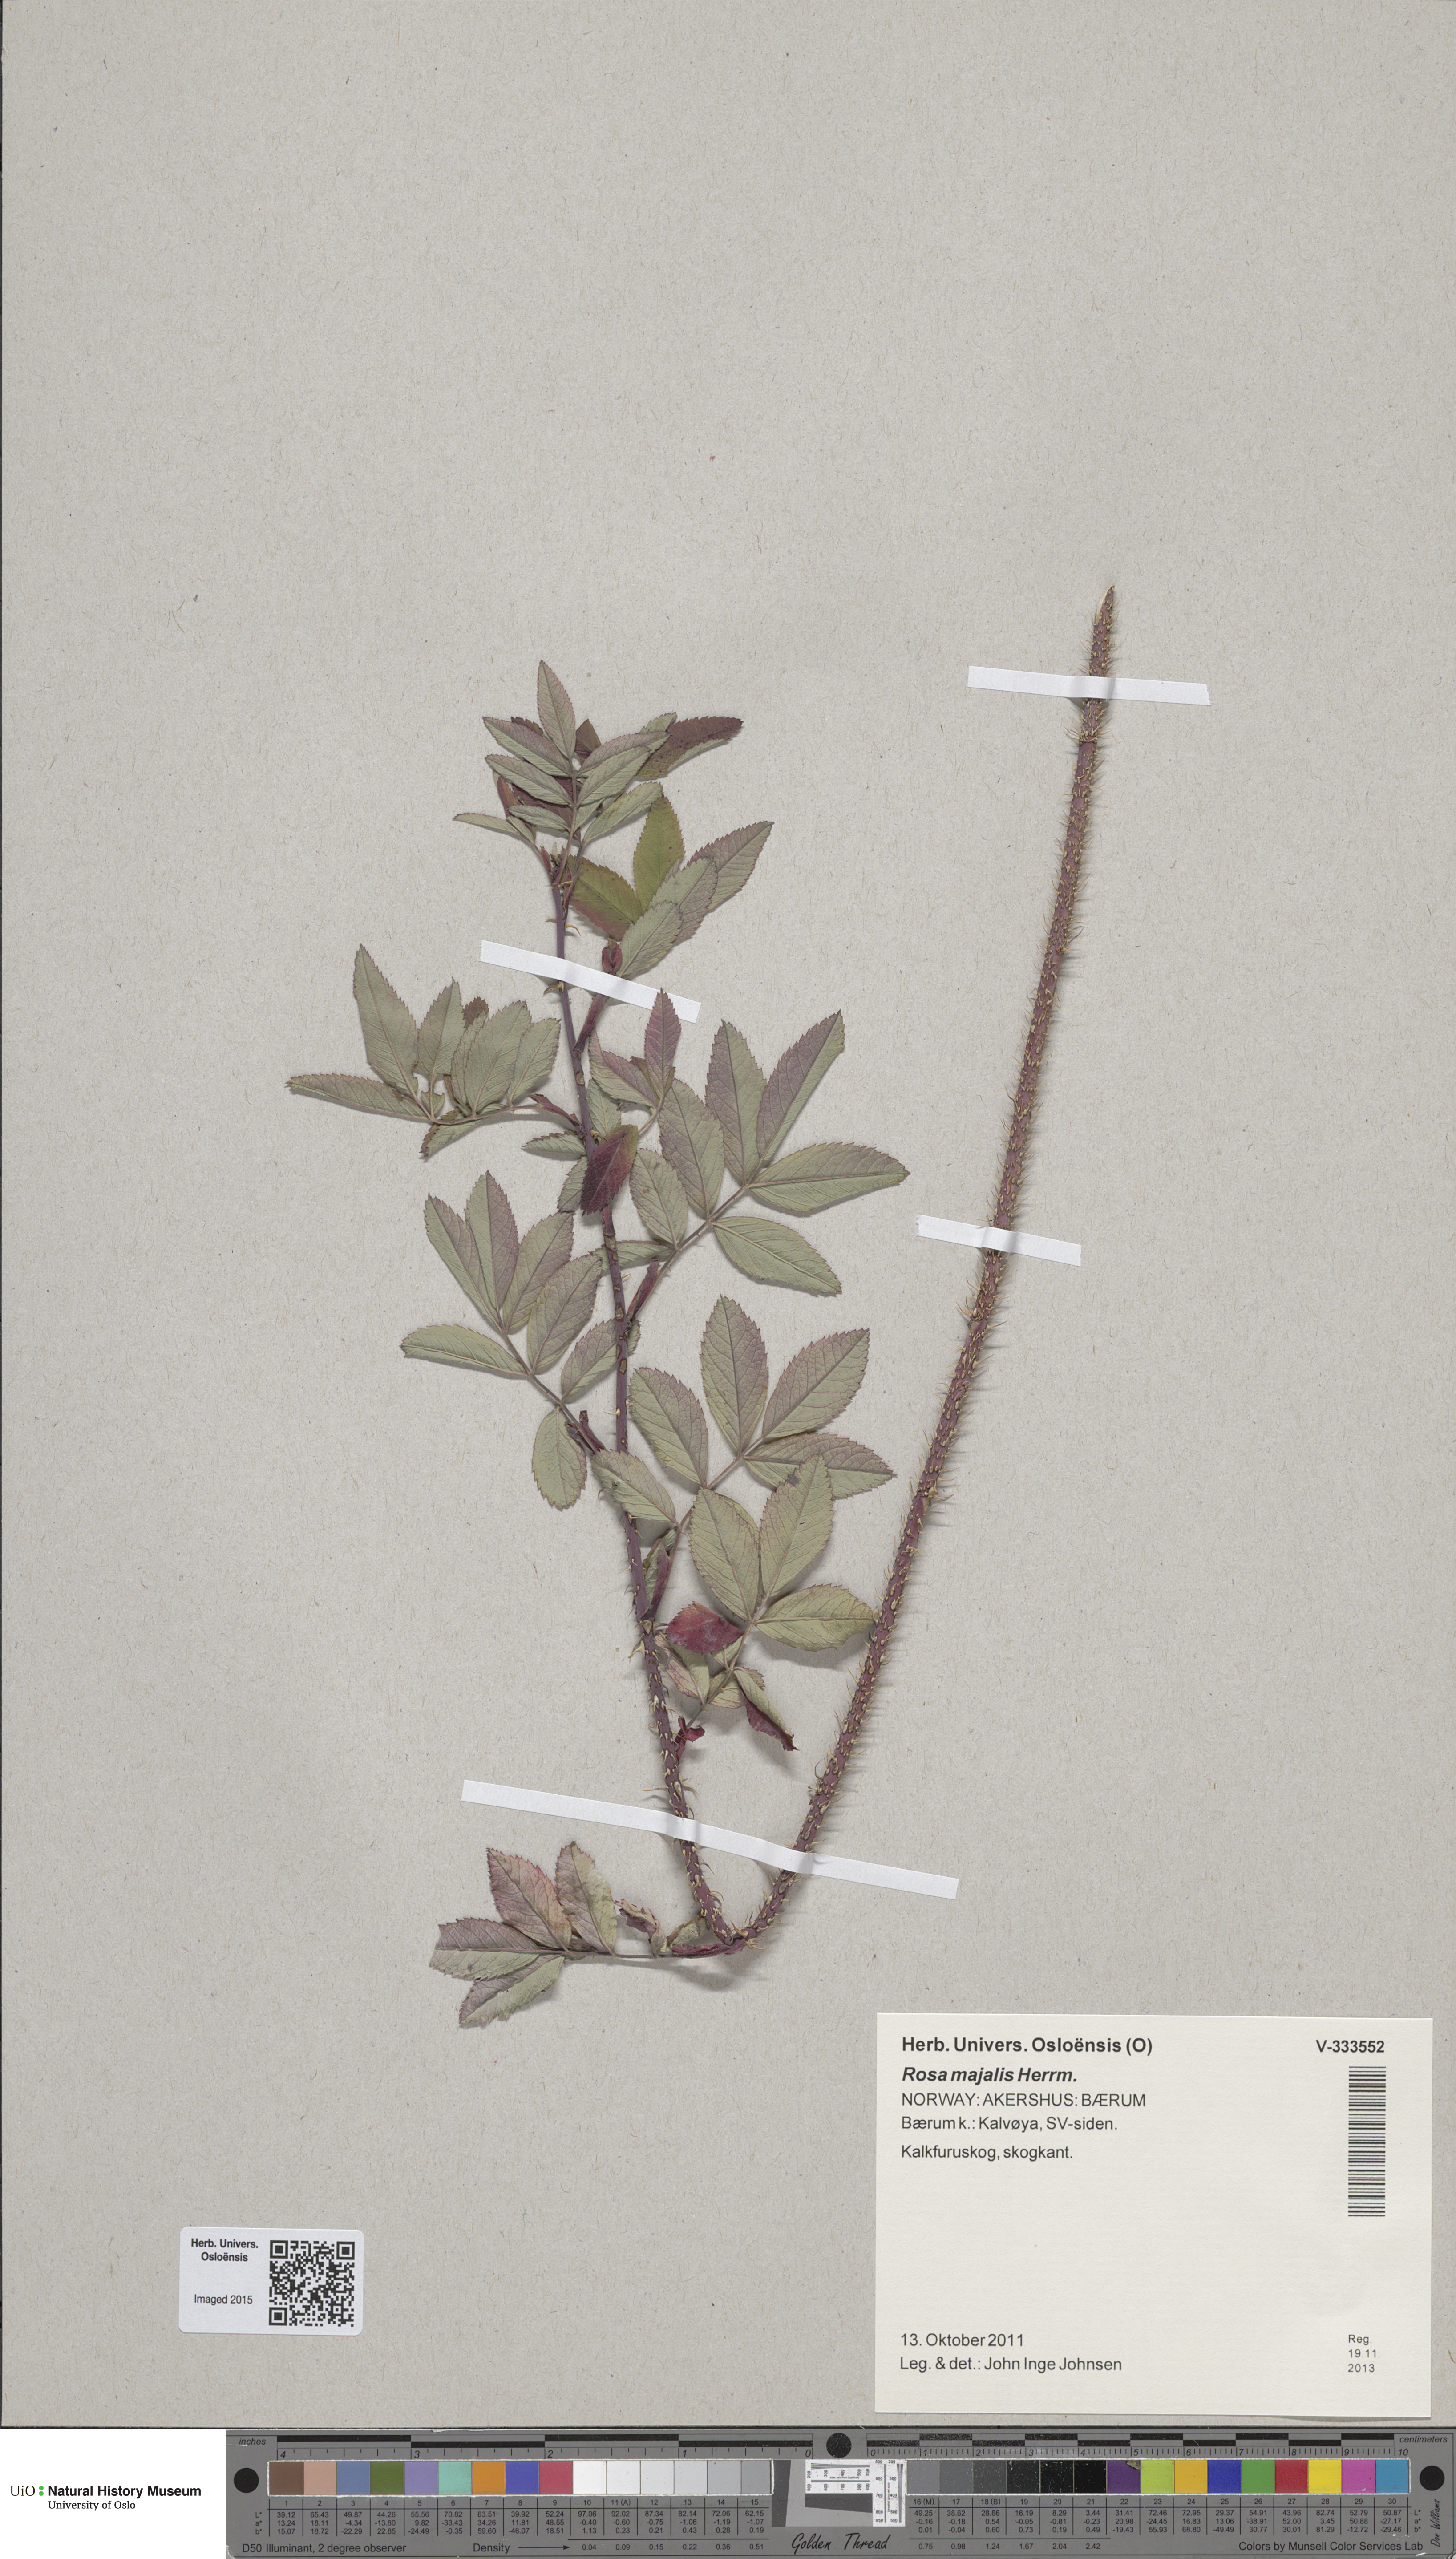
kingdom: Plantae
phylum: Tracheophyta
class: Magnoliopsida
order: Rosales
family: Rosaceae
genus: Rosa
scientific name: Rosa majalis
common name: Cinnamon rose
